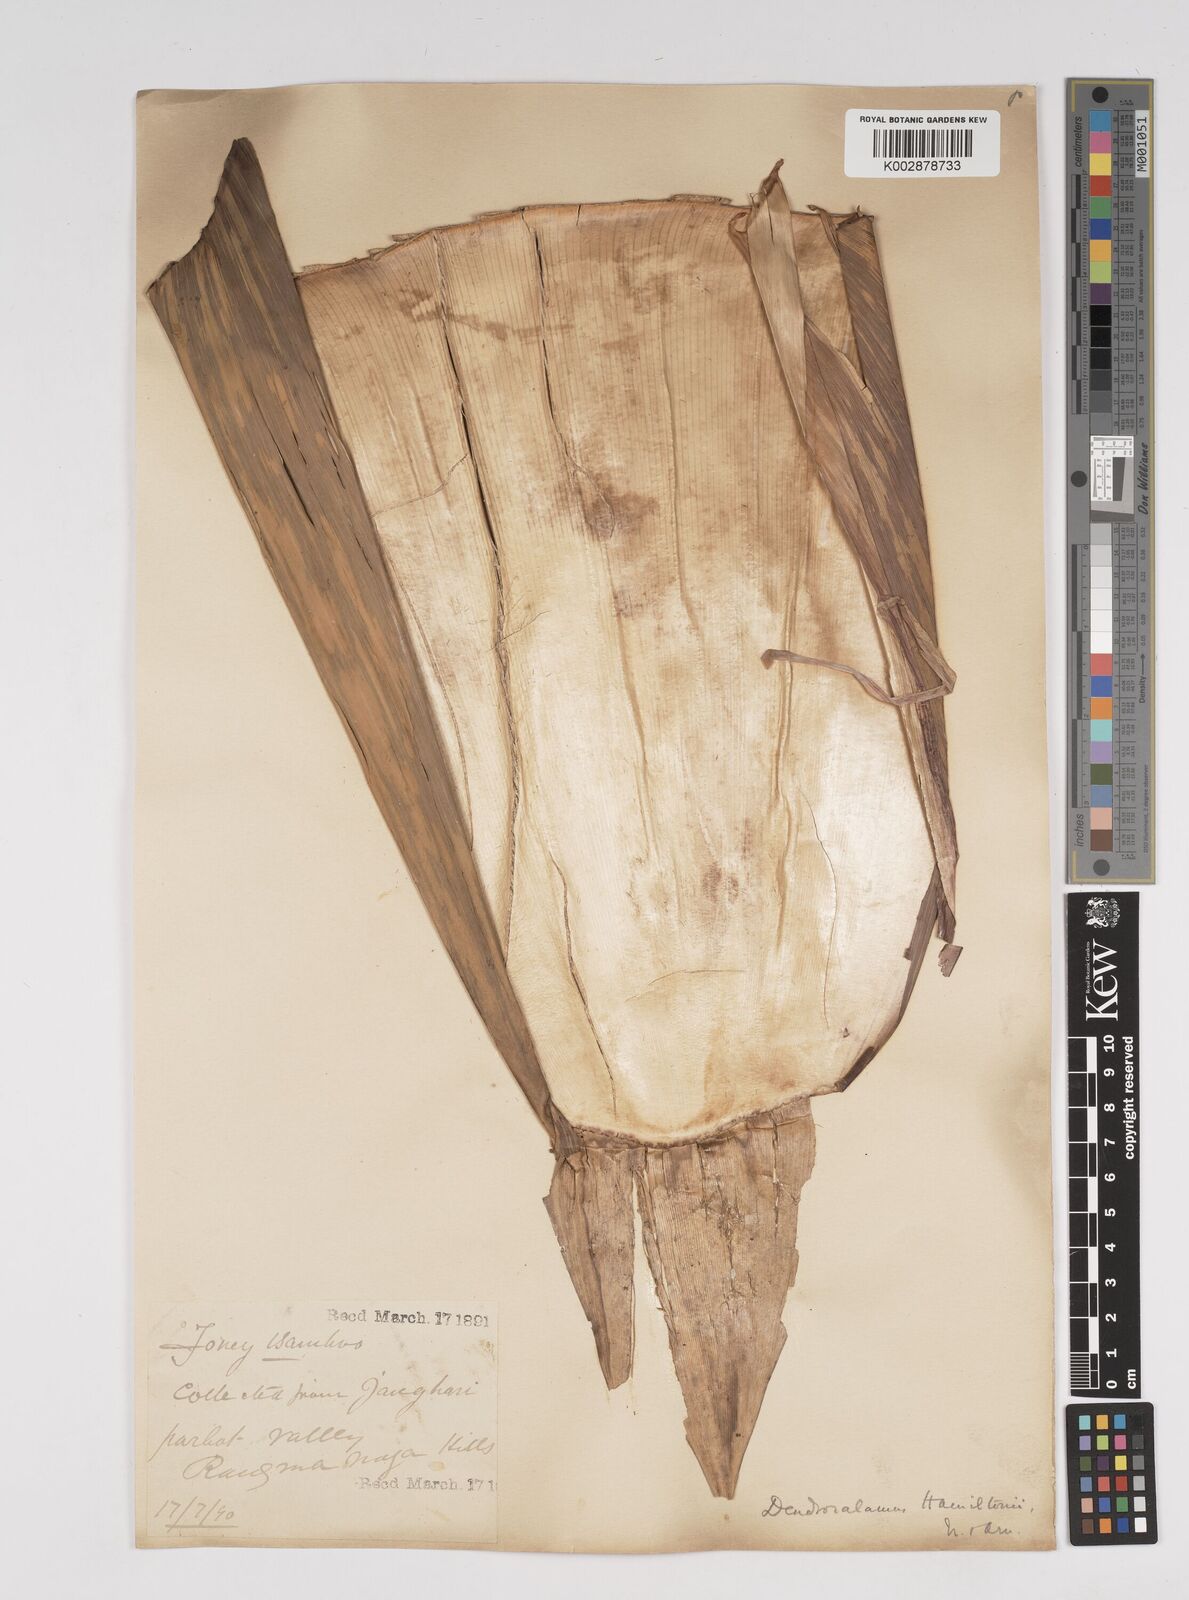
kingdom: Plantae
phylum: Tracheophyta
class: Liliopsida
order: Poales
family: Poaceae
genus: Dendrocalamus
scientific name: Dendrocalamus hamiltonii
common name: Tama bamboo
